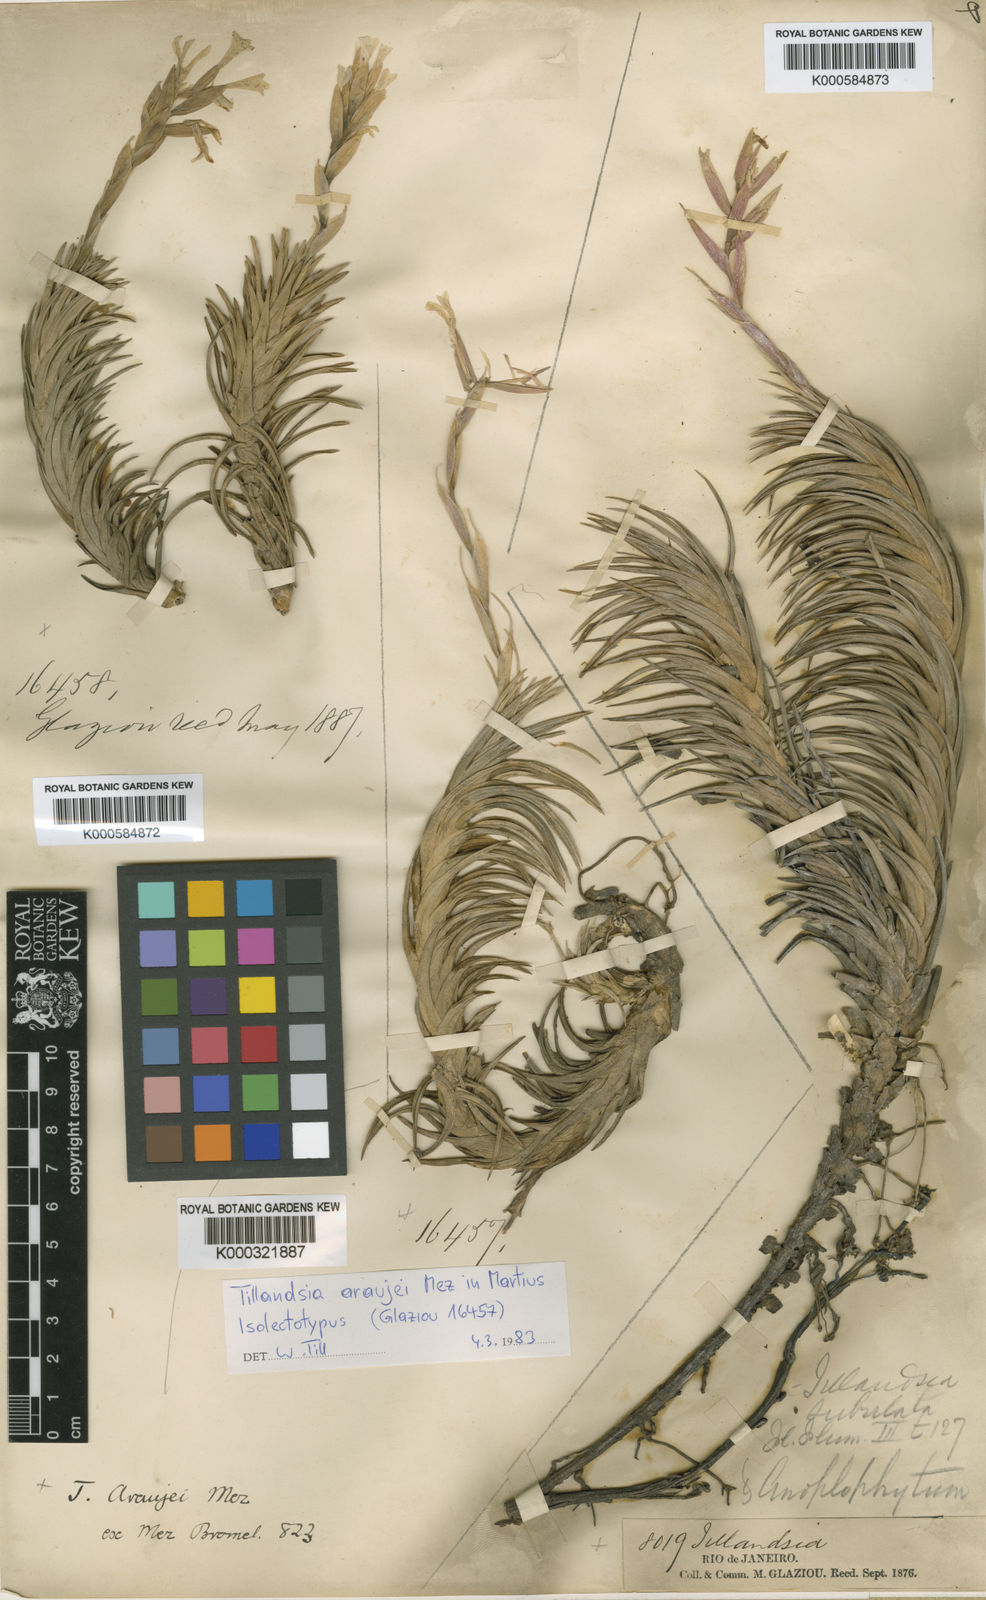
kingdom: Plantae
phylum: Tracheophyta
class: Liliopsida
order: Poales
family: Bromeliaceae
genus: Tillandsia
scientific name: Tillandsia araujei
